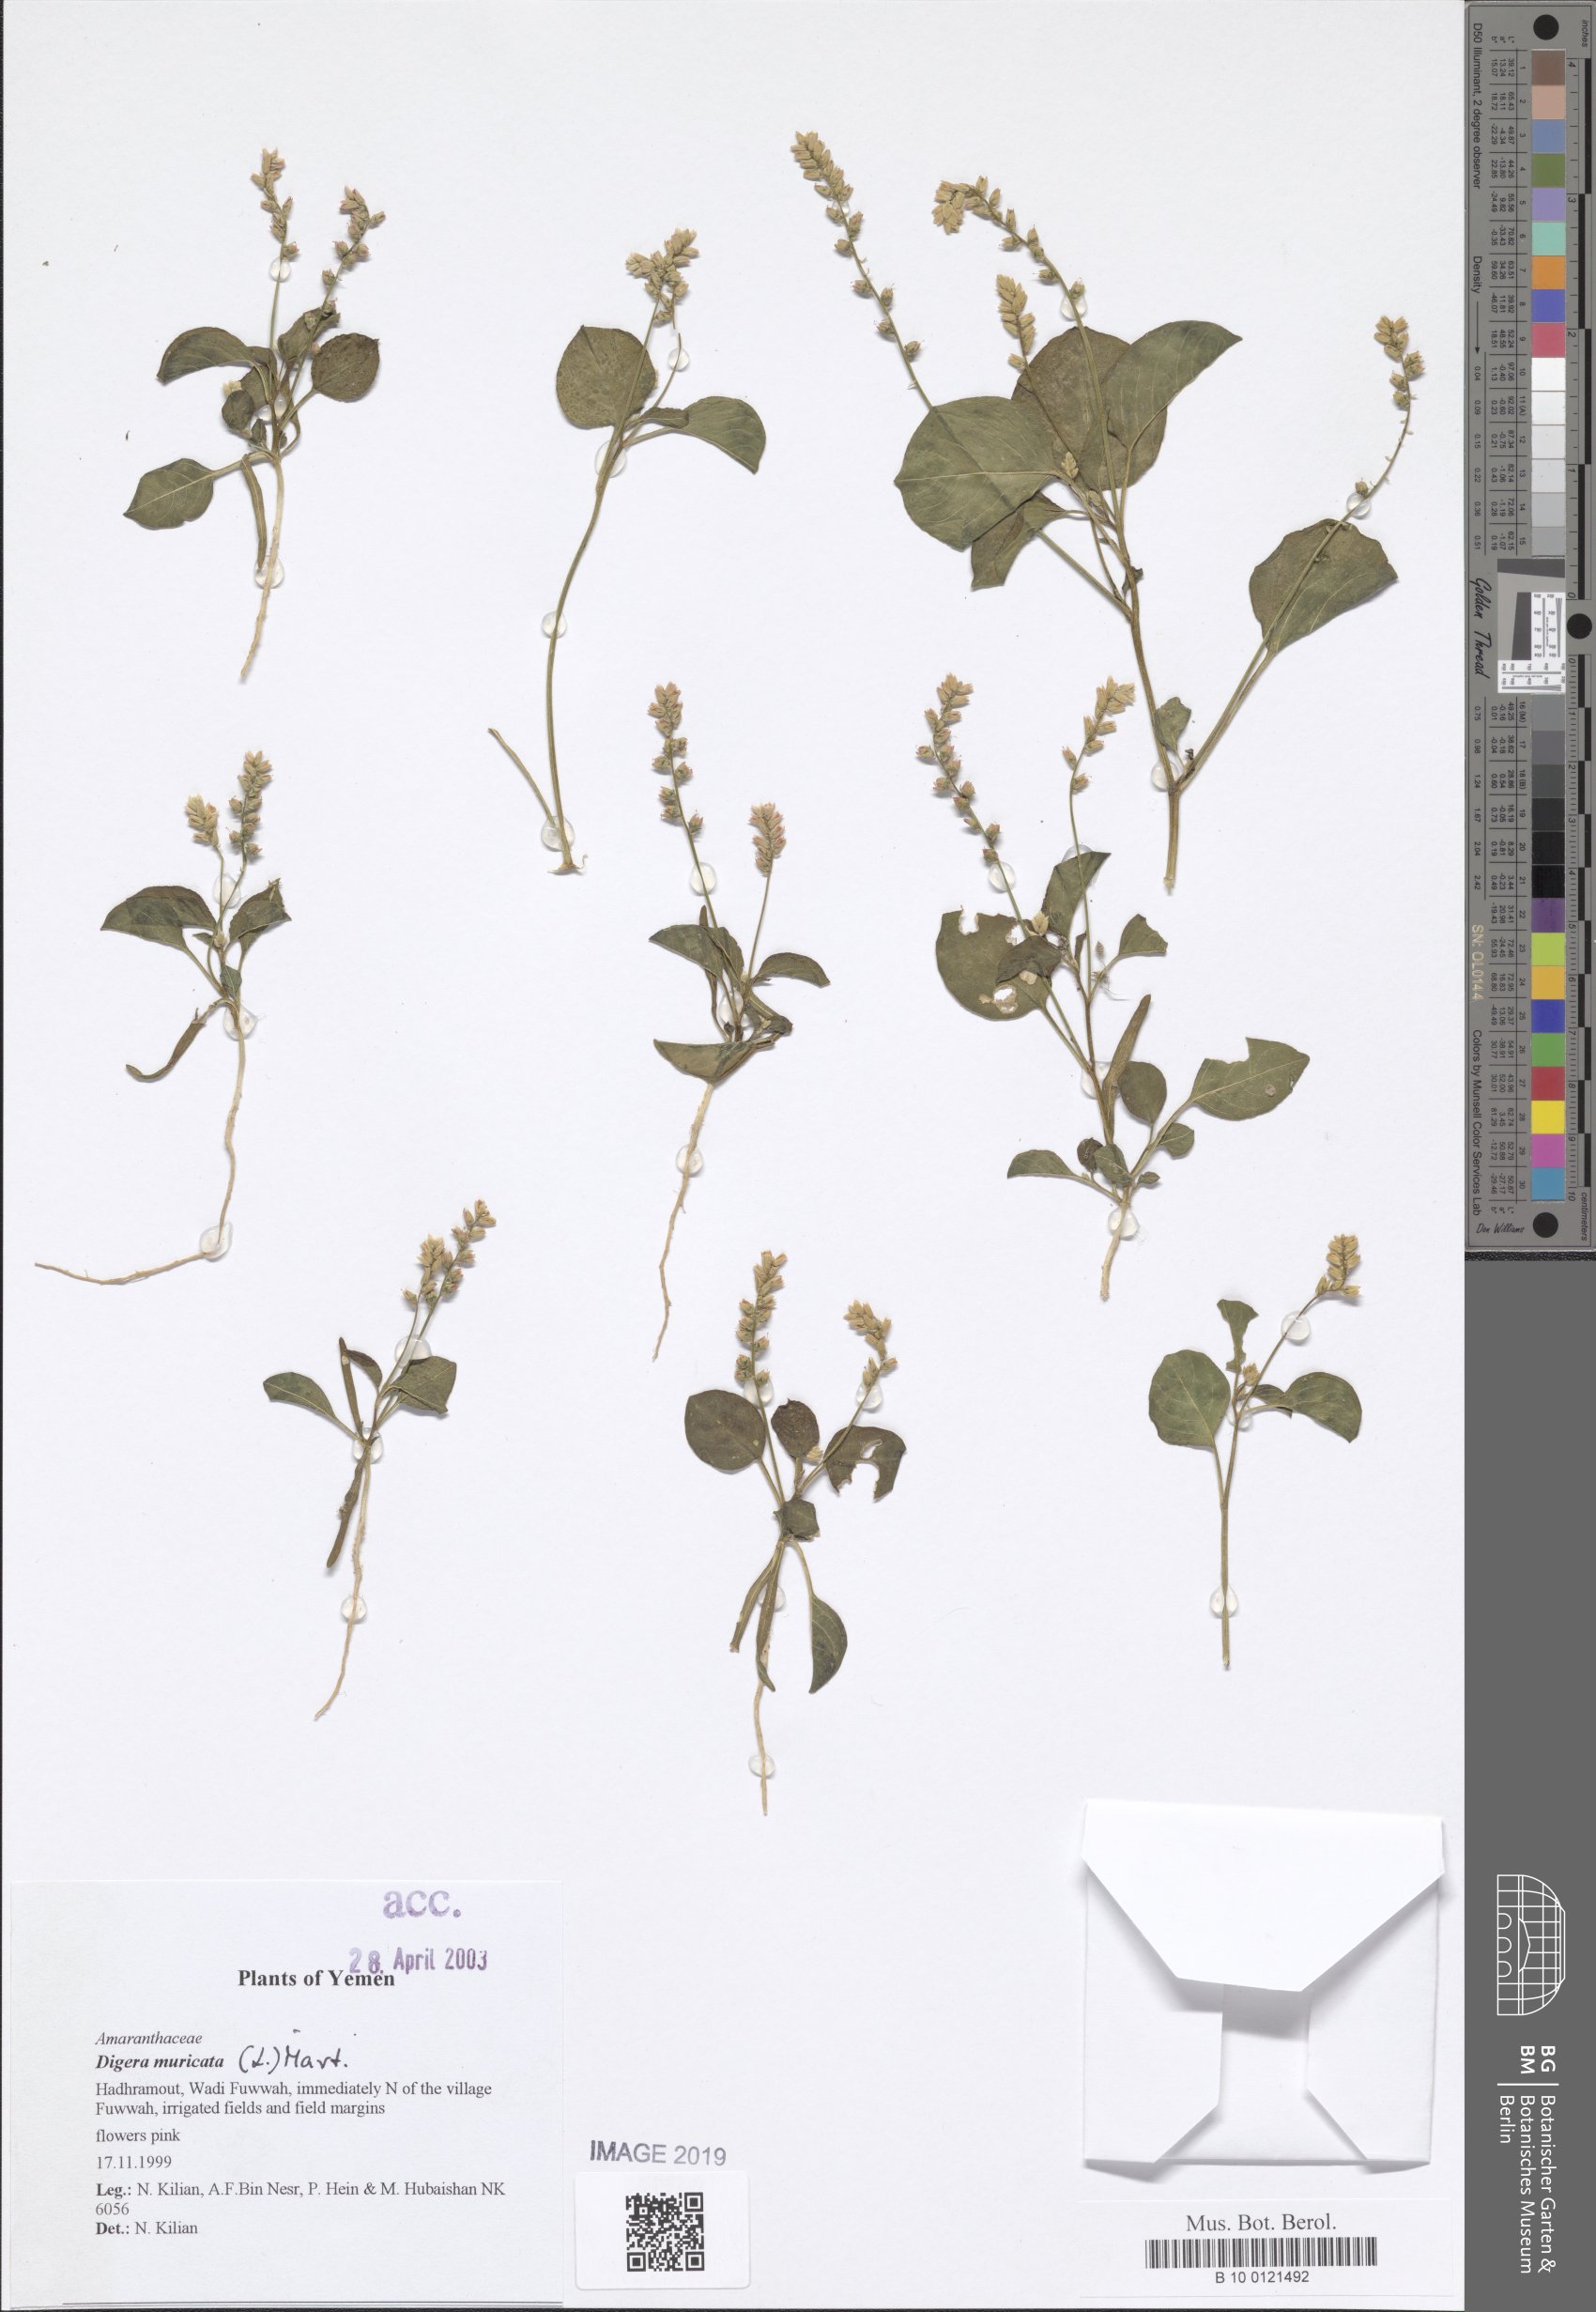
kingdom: Plantae
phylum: Tracheophyta
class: Magnoliopsida
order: Caryophyllales
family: Amaranthaceae
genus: Digera
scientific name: Digera muricata
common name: False amaranth
